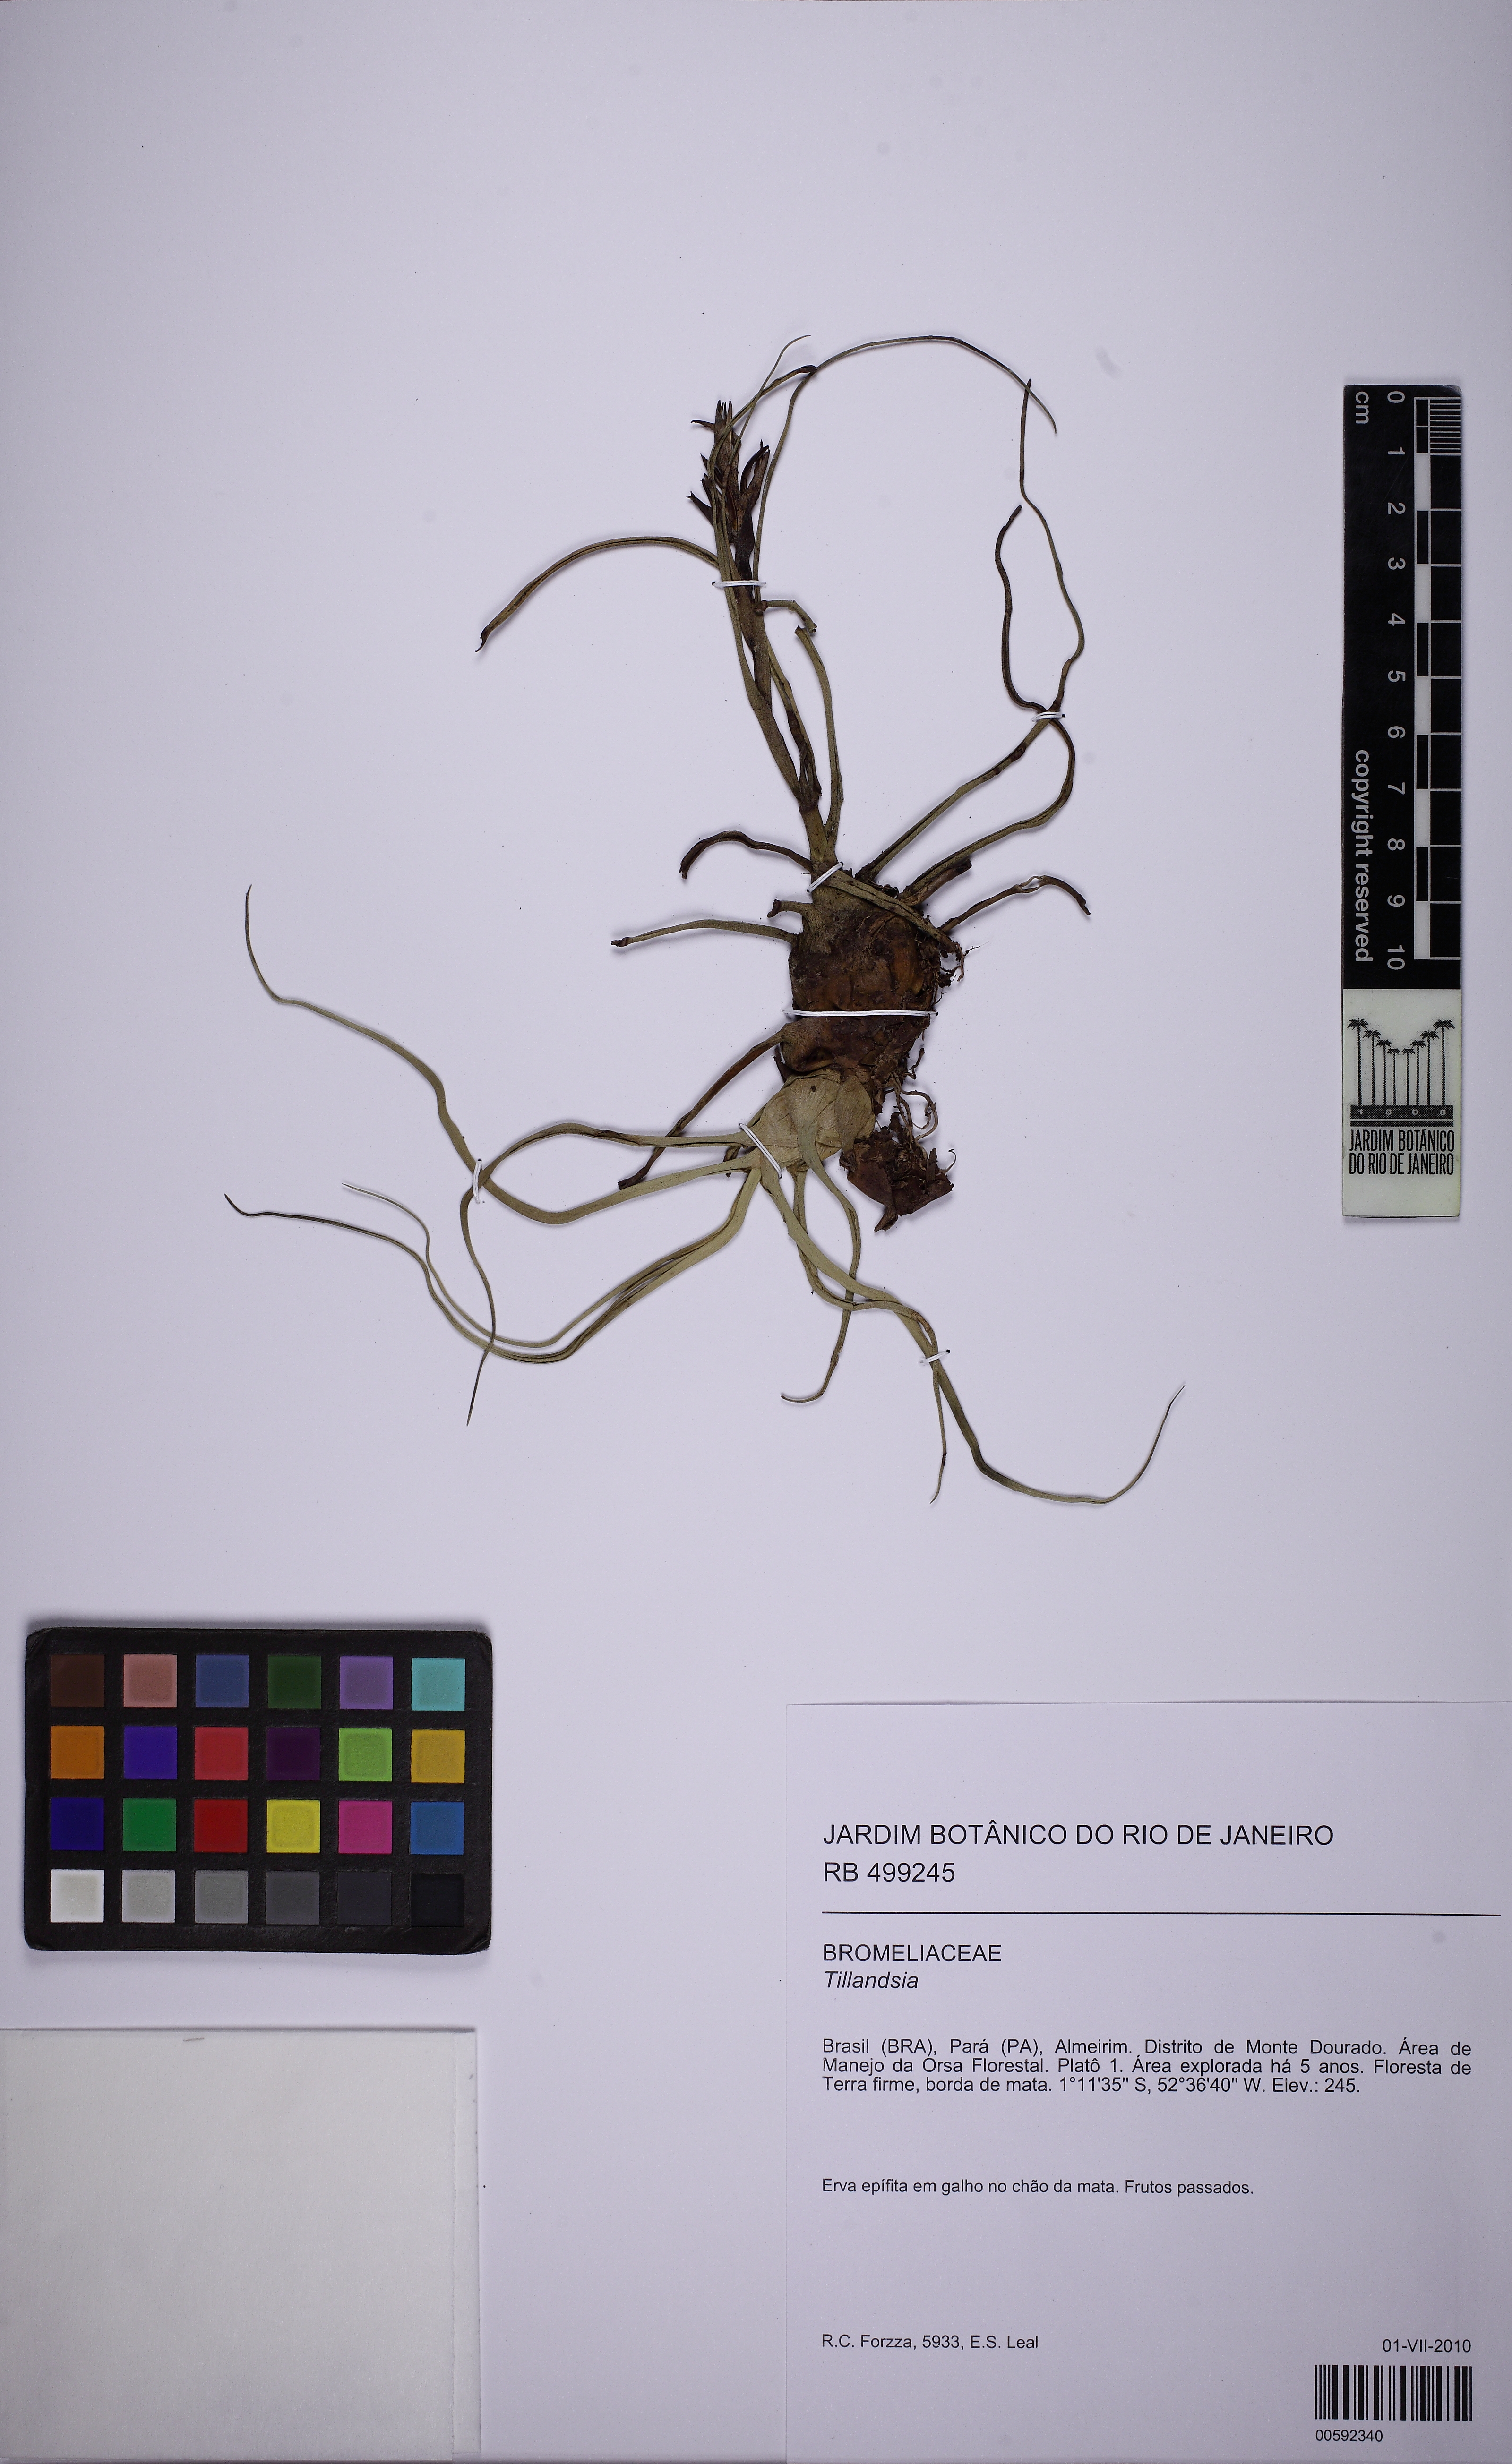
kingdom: Plantae
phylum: Tracheophyta
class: Liliopsida
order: Poales
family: Bromeliaceae
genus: Tillandsia
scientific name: Tillandsia bulbosa
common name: Bulbous airplant
